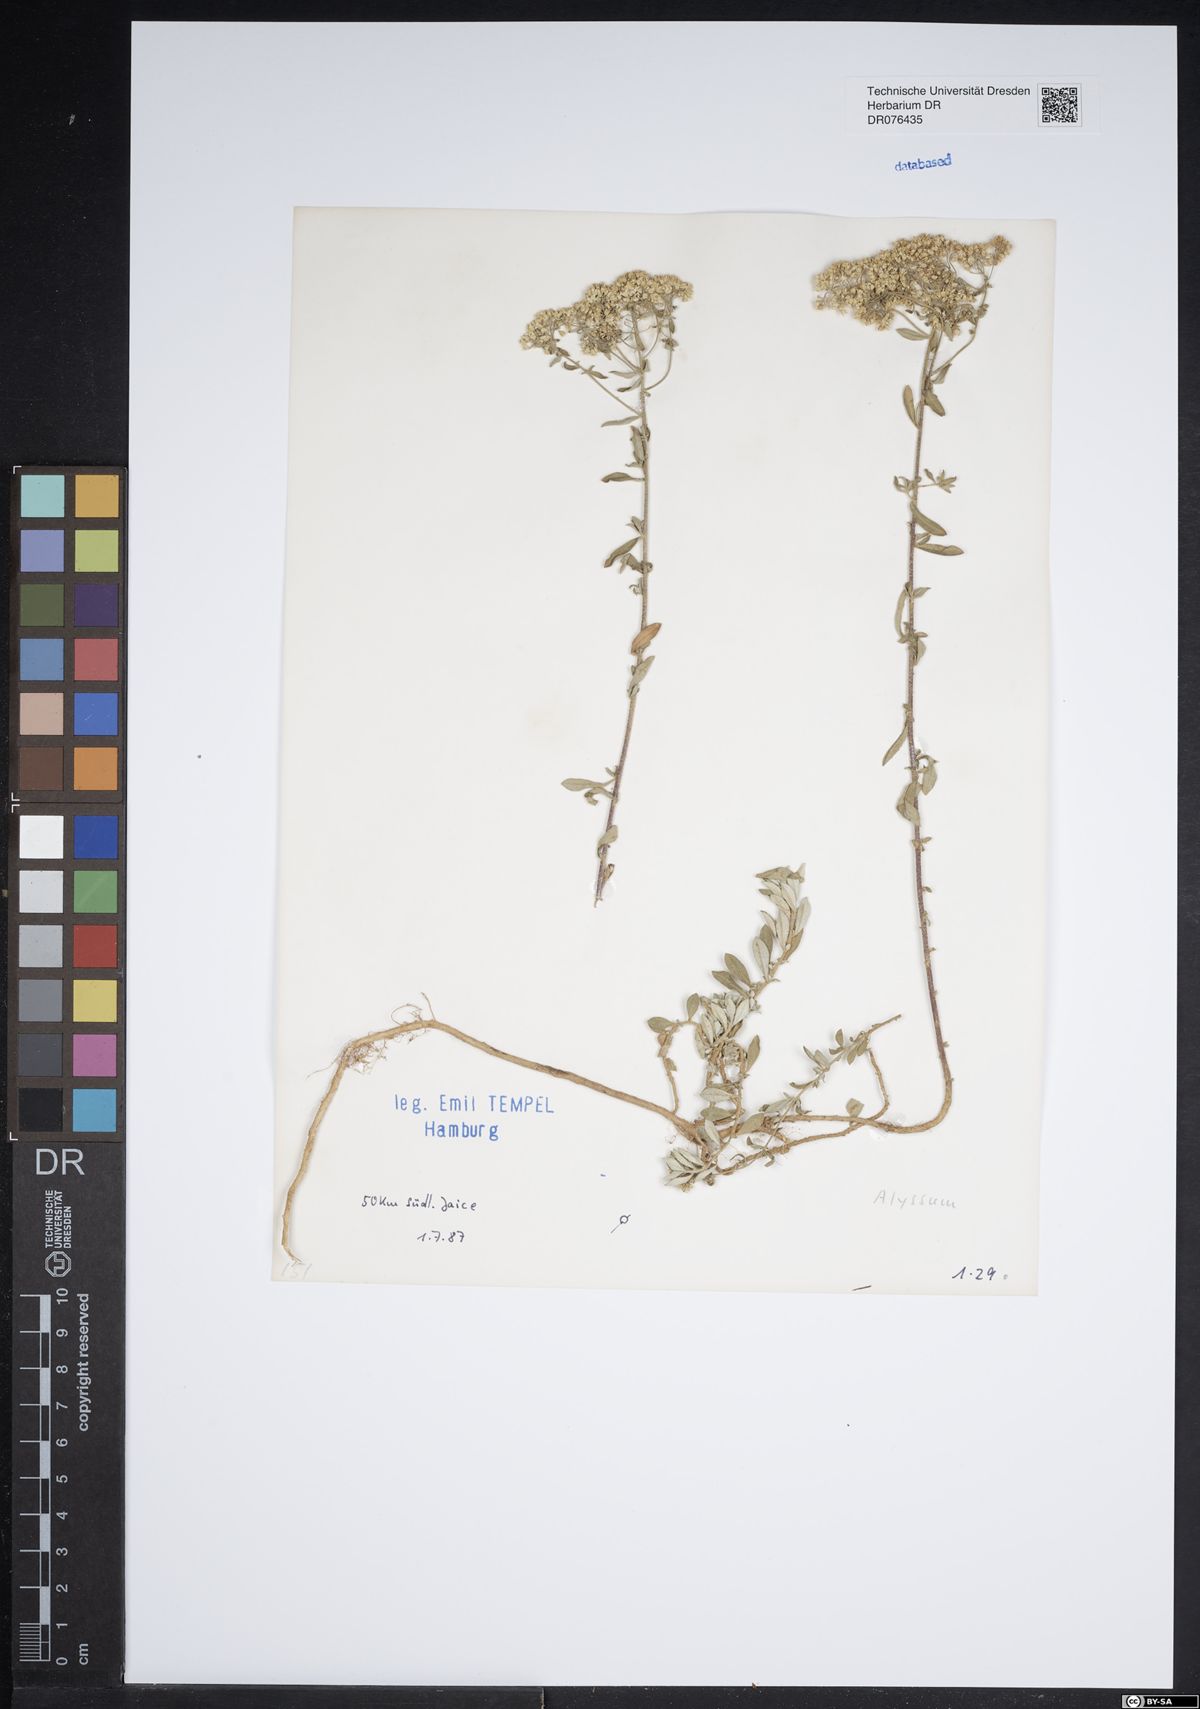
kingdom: Plantae
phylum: Tracheophyta
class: Magnoliopsida
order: Brassicales
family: Brassicaceae
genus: Alyssum
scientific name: Alyssum
